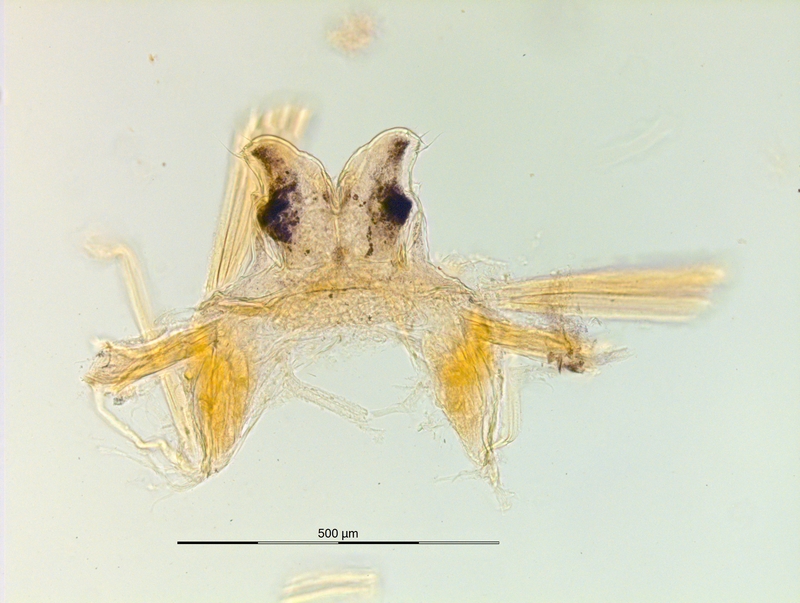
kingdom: Animalia
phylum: Arthropoda
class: Diplopoda
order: Chordeumatida
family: Craspedosomatidae
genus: Ochogona
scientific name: Ochogona caroli
